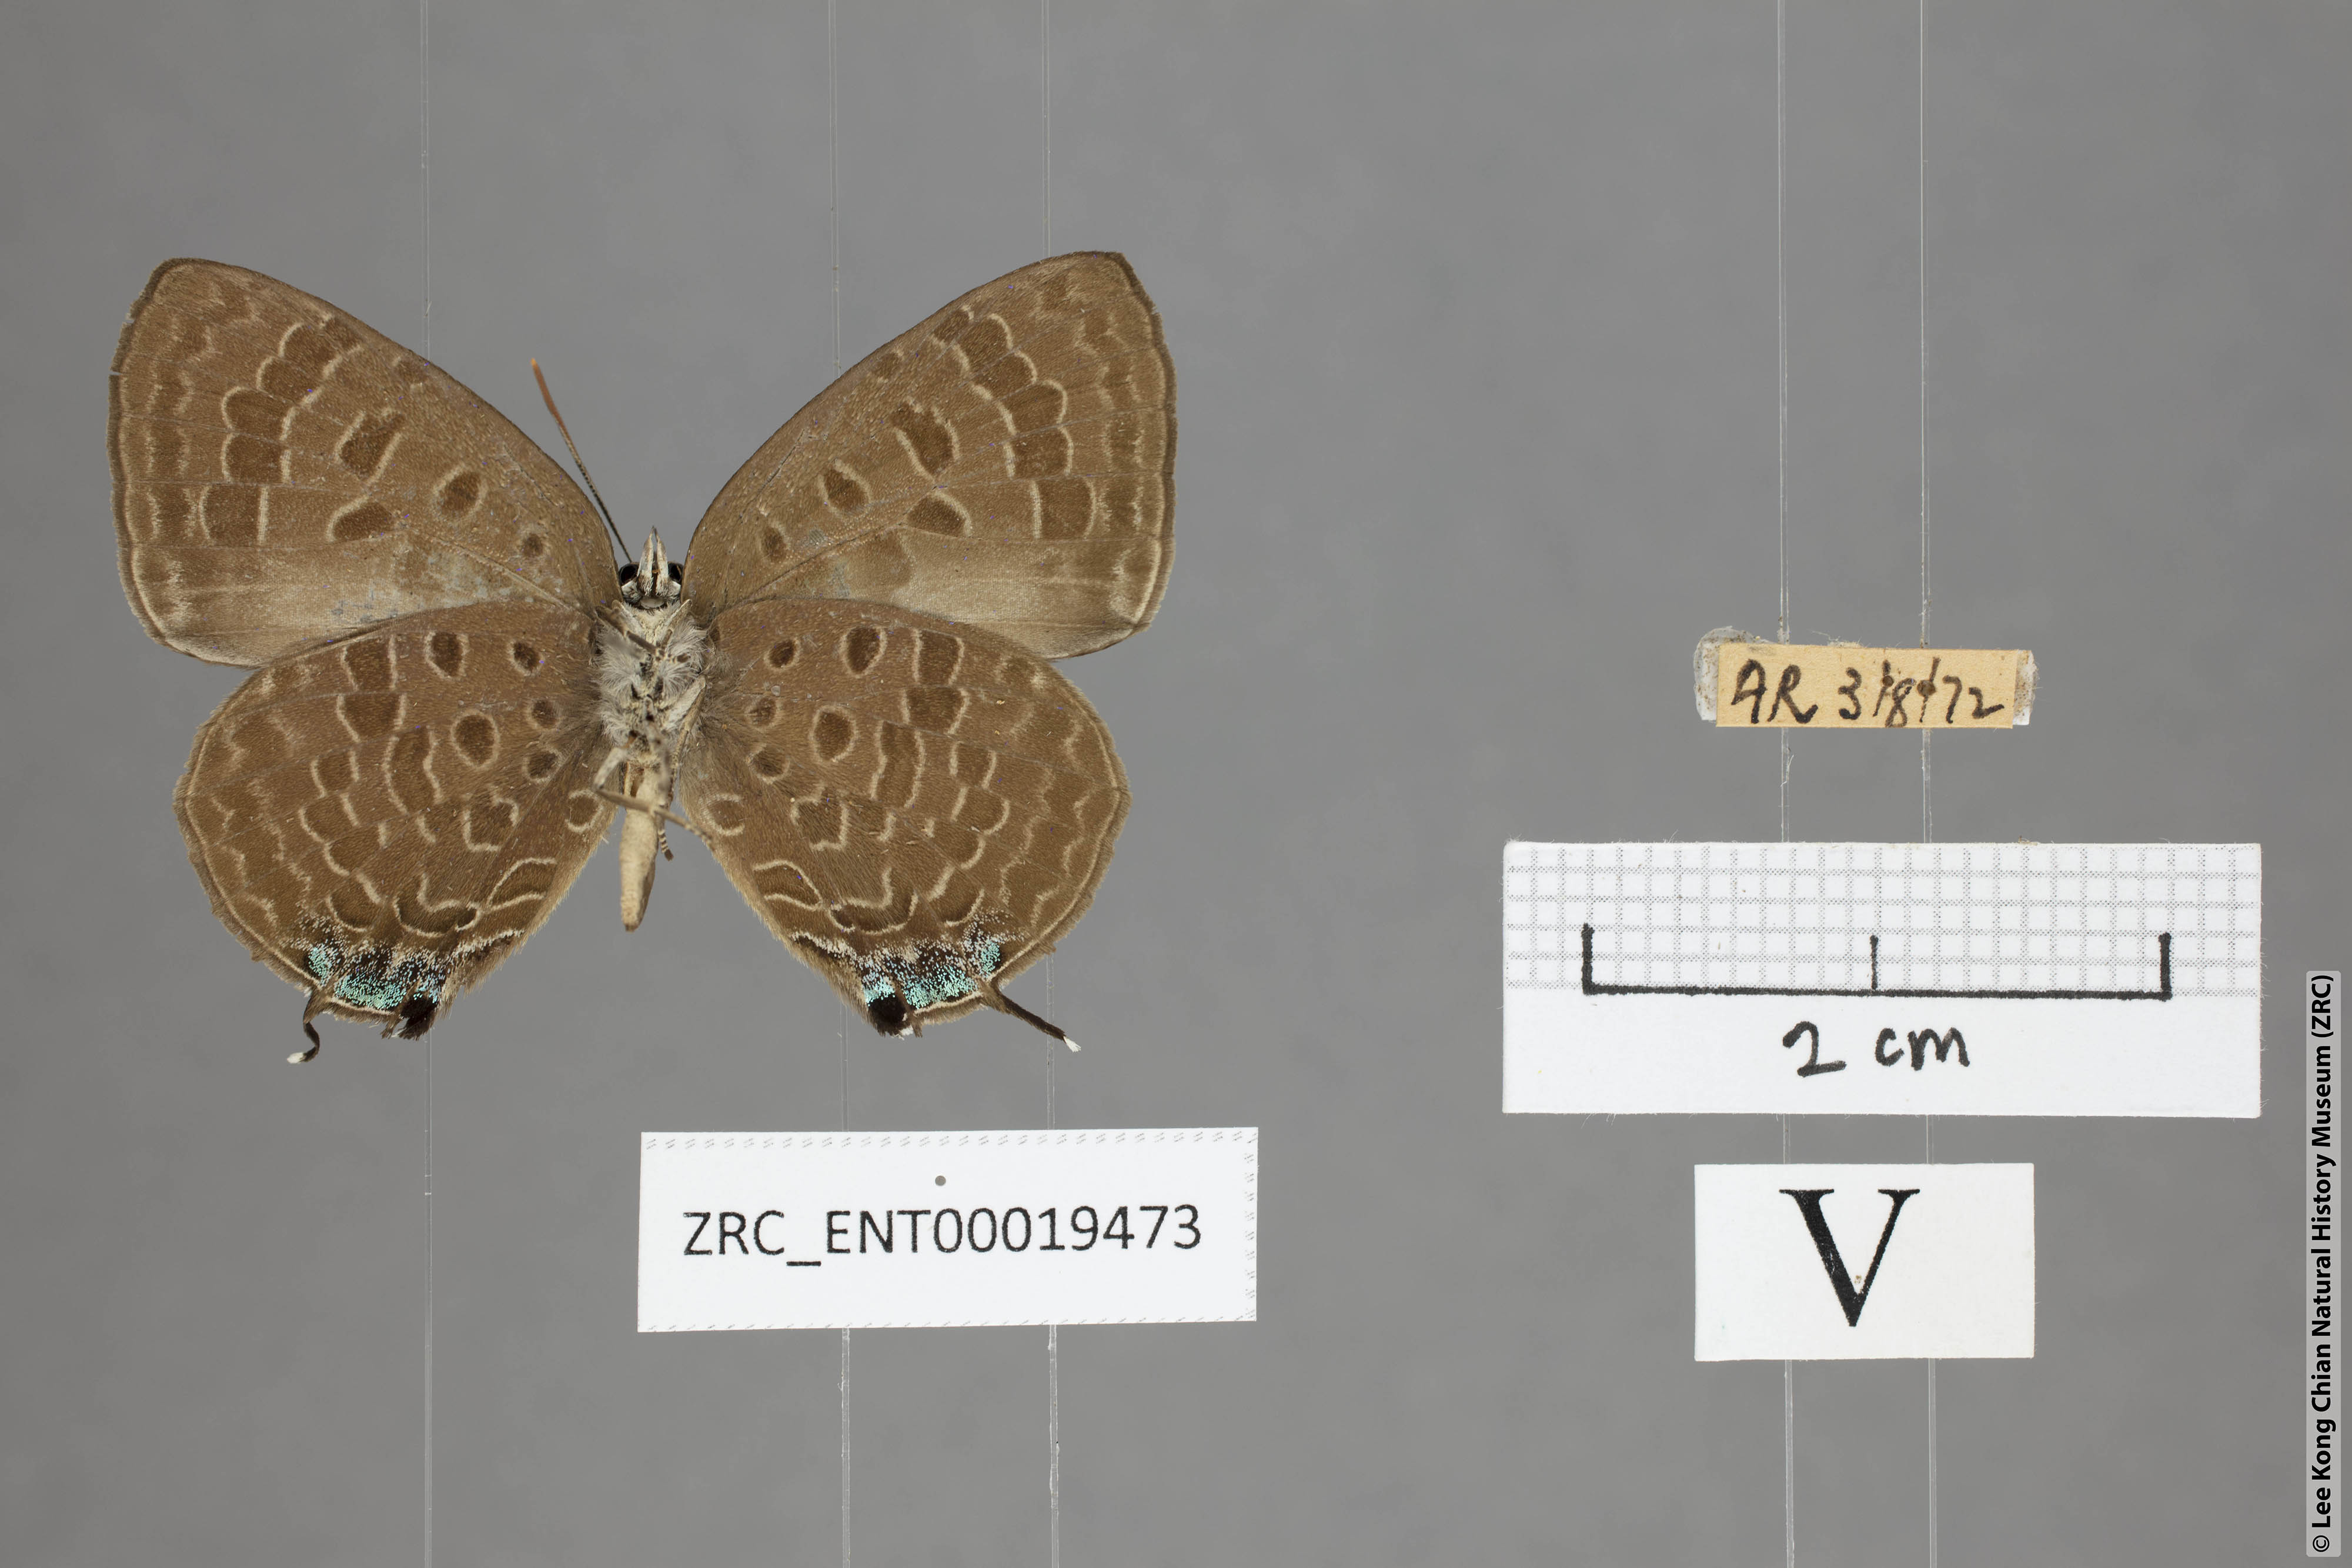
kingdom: Animalia
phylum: Arthropoda
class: Insecta
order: Lepidoptera
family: Lycaenidae
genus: Arhopala
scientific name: Arhopala azinis
